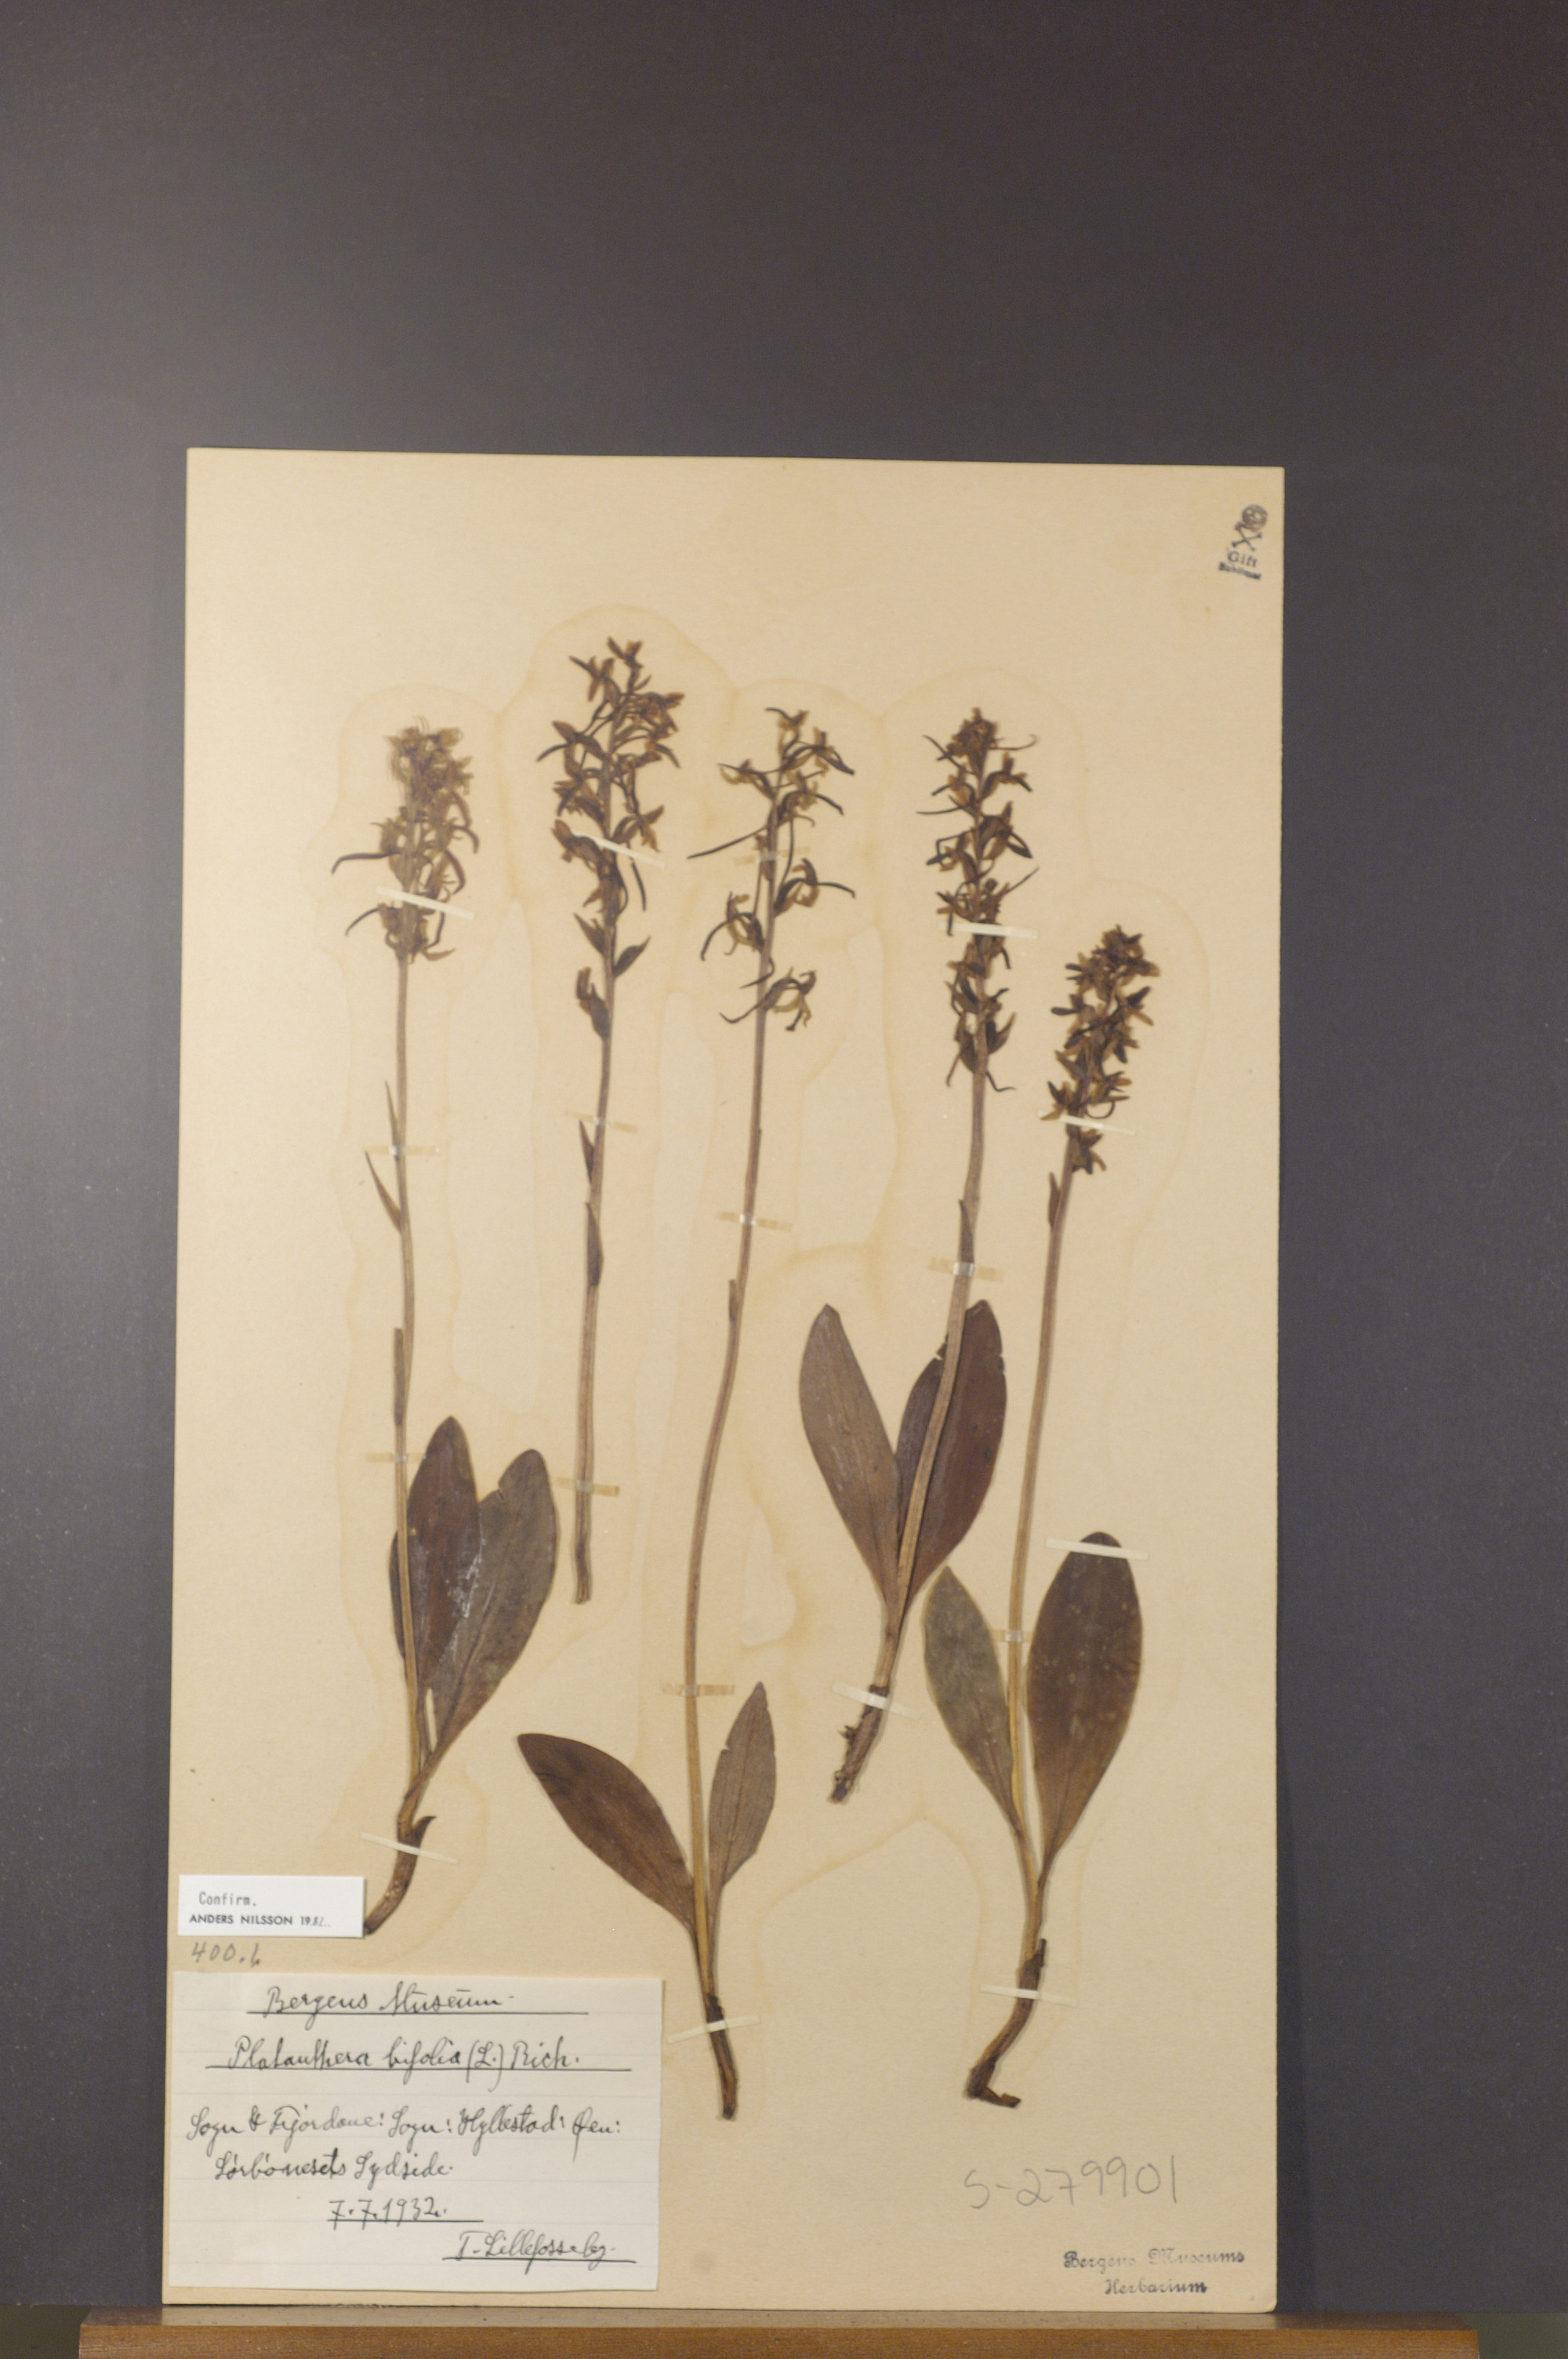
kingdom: Plantae
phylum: Tracheophyta
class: Liliopsida
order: Asparagales
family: Orchidaceae
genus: Platanthera
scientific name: Platanthera bifolia
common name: Lesser butterfly-orchid
